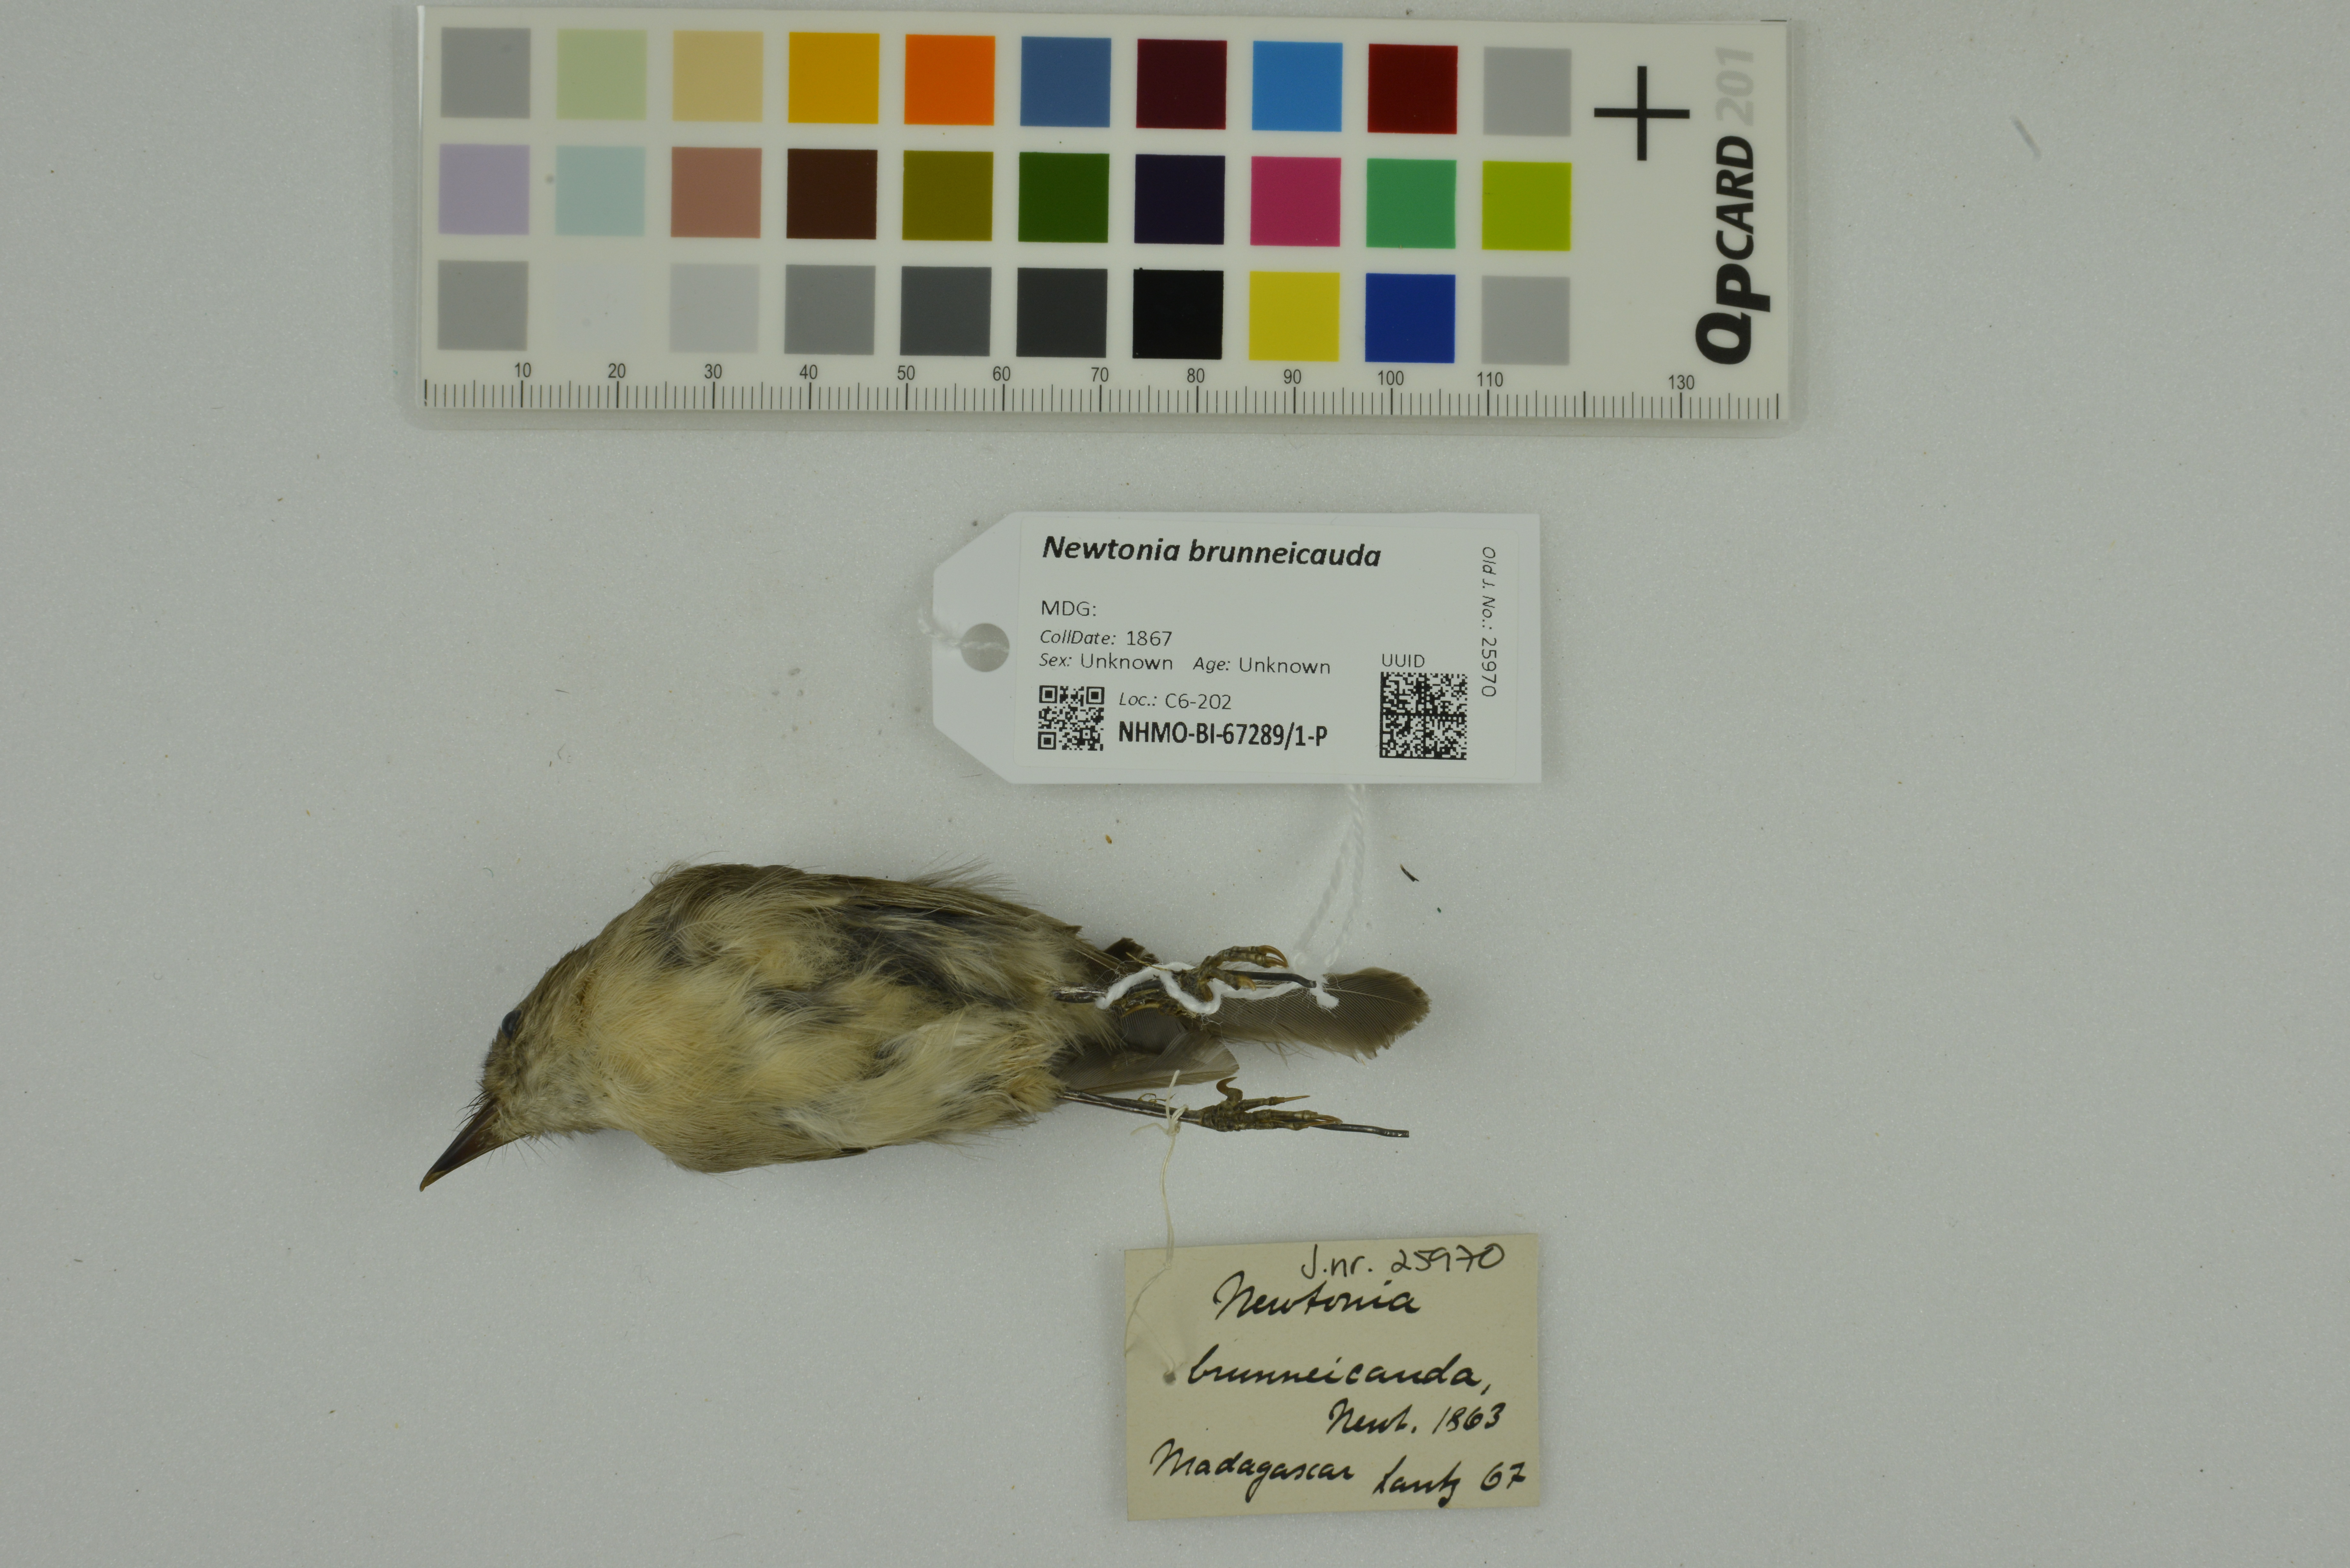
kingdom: Animalia
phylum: Chordata
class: Aves
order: Passeriformes
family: Vangidae
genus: Newtonia
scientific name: Newtonia brunneicauda
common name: Common newtonia
